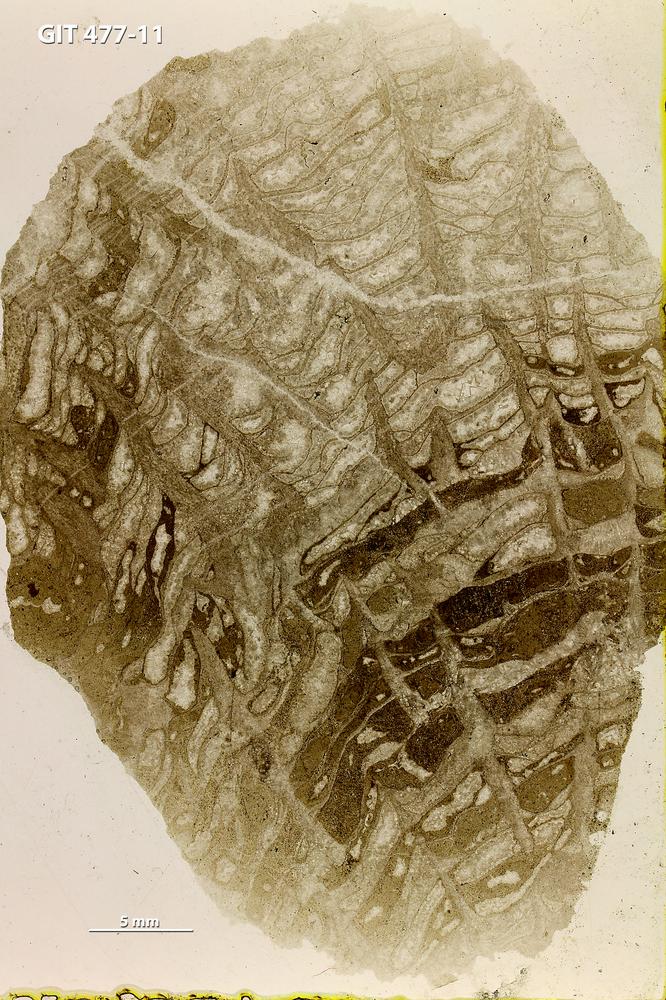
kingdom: Animalia
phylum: Porifera
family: Stromatoceriidae
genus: Cystistroma
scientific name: Cystistroma
